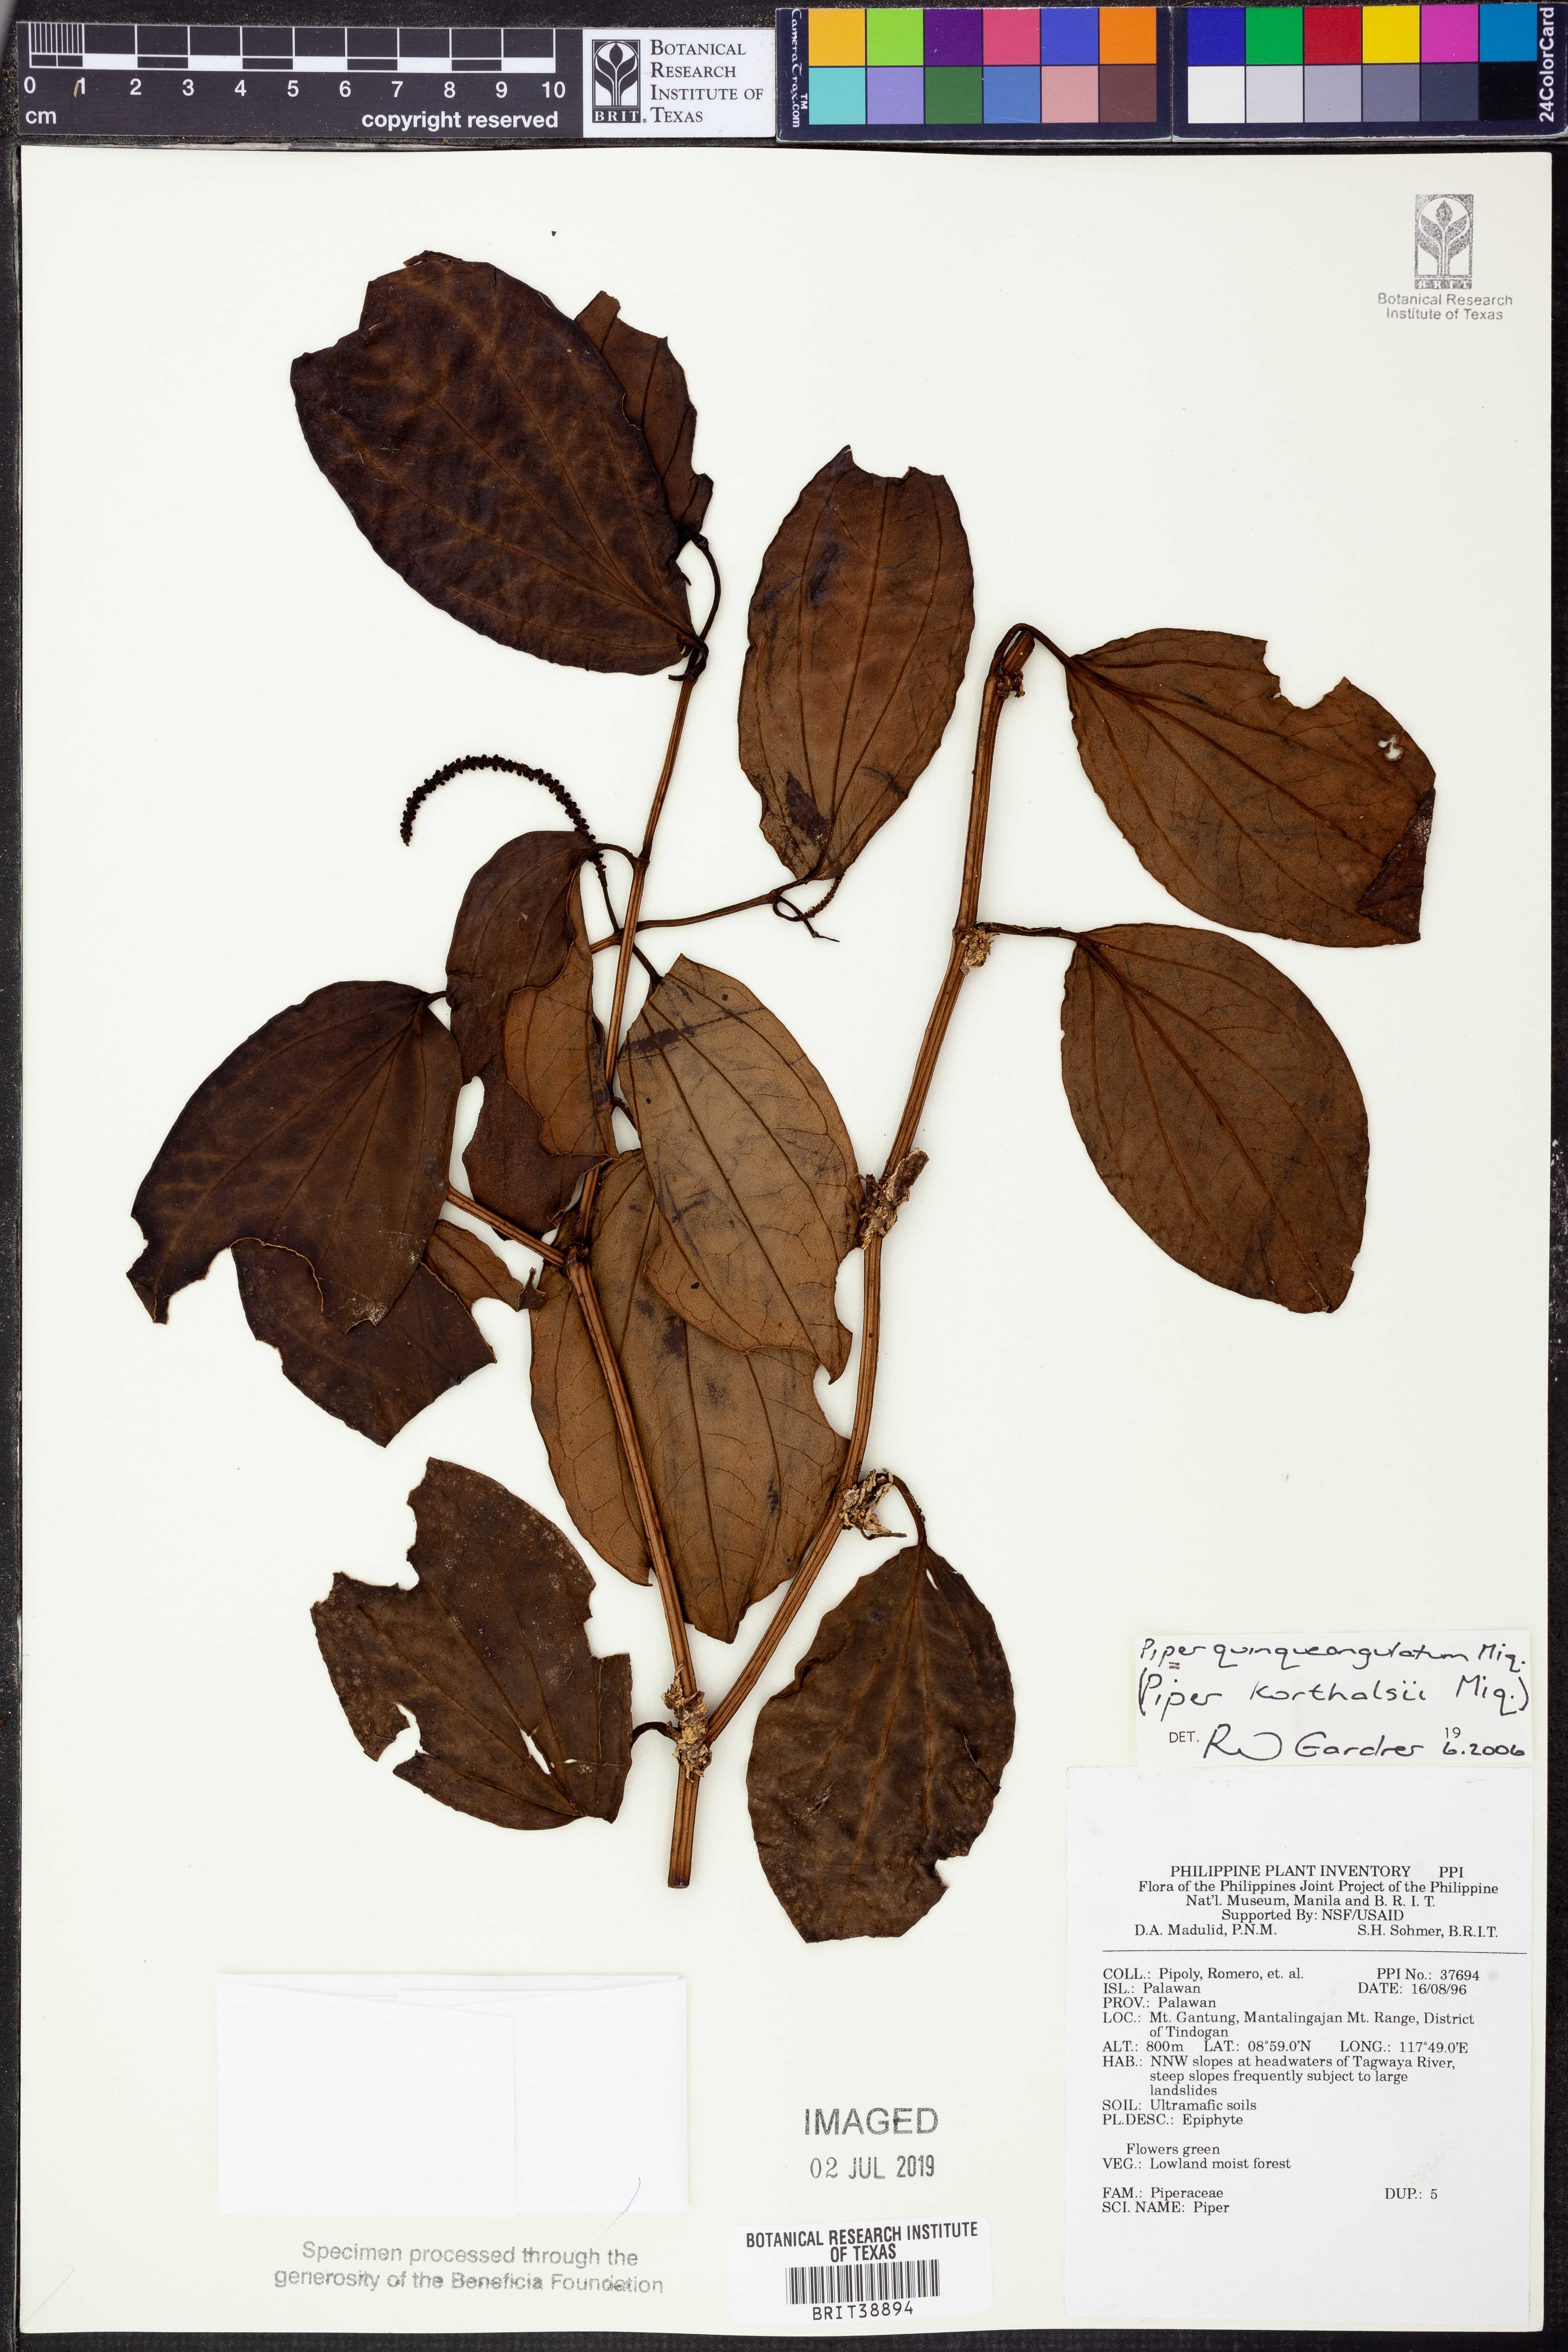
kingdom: Plantae
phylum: Tracheophyta
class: Magnoliopsida
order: Piperales
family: Piperaceae
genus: Piper
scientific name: Piper quinqueangulatum
